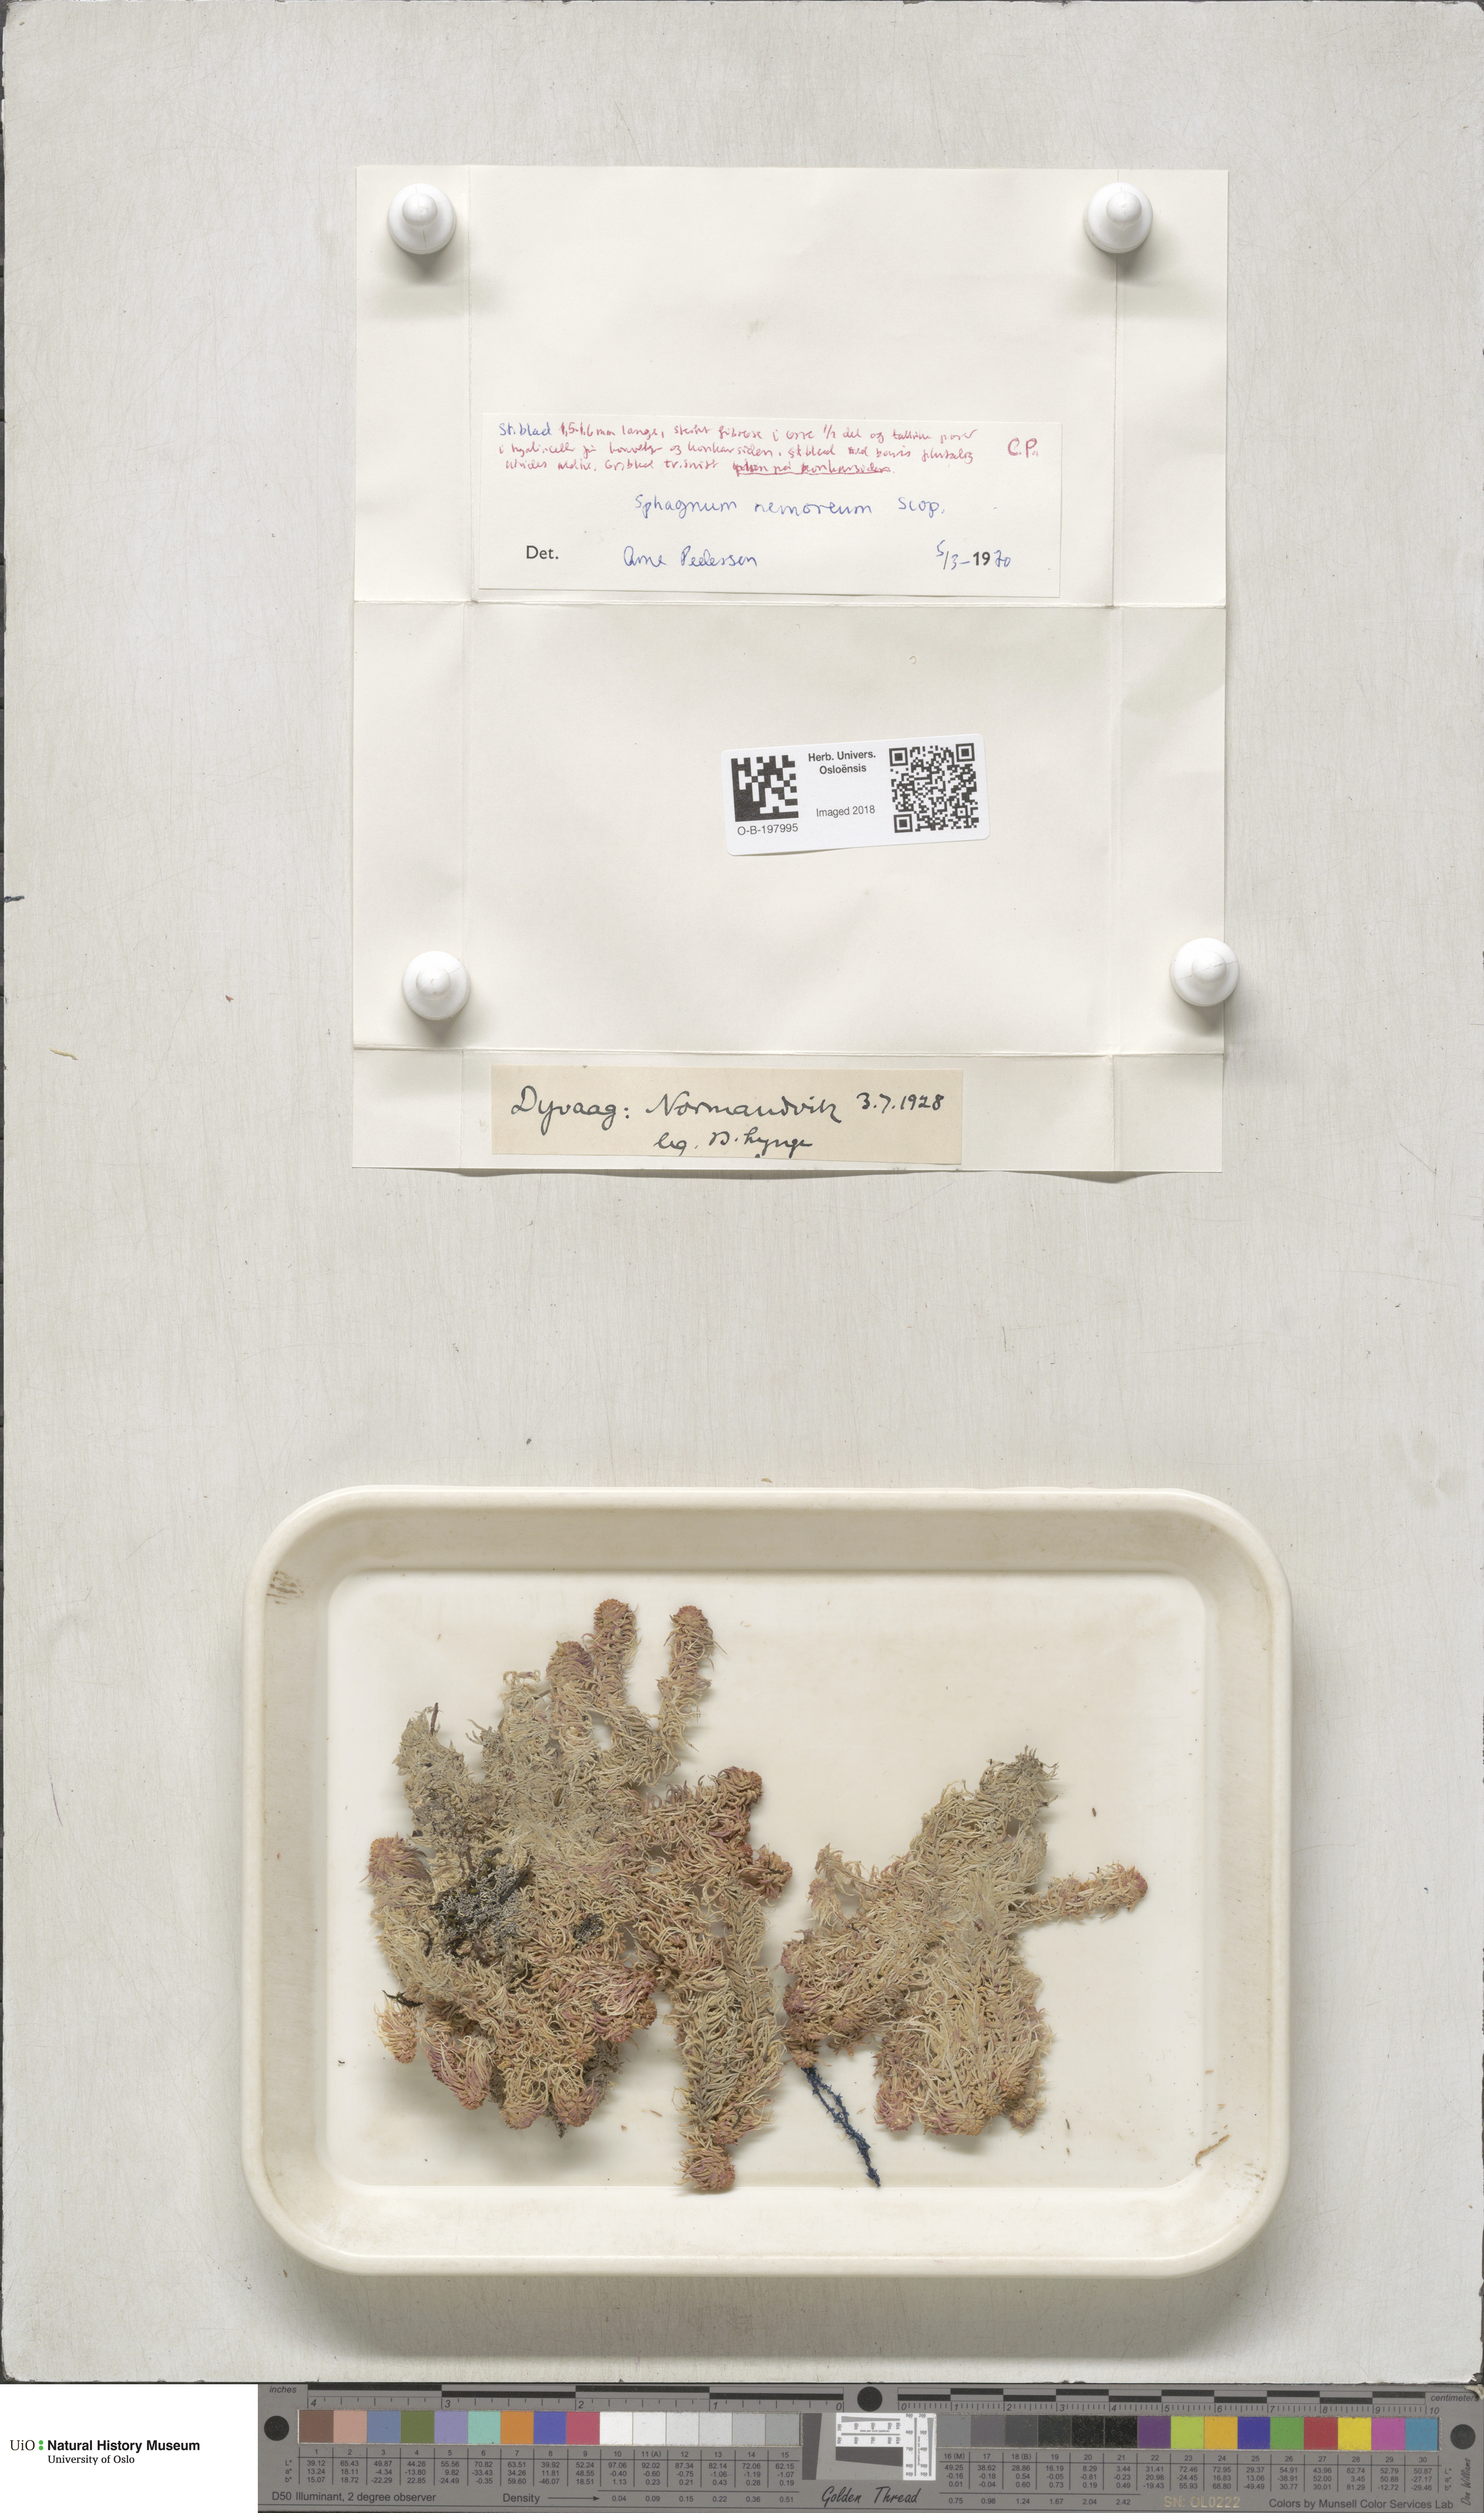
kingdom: Plantae
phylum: Bryophyta
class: Sphagnopsida
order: Sphagnales
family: Sphagnaceae
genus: Sphagnum
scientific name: Sphagnum capillifolium
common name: Small red peat moss
